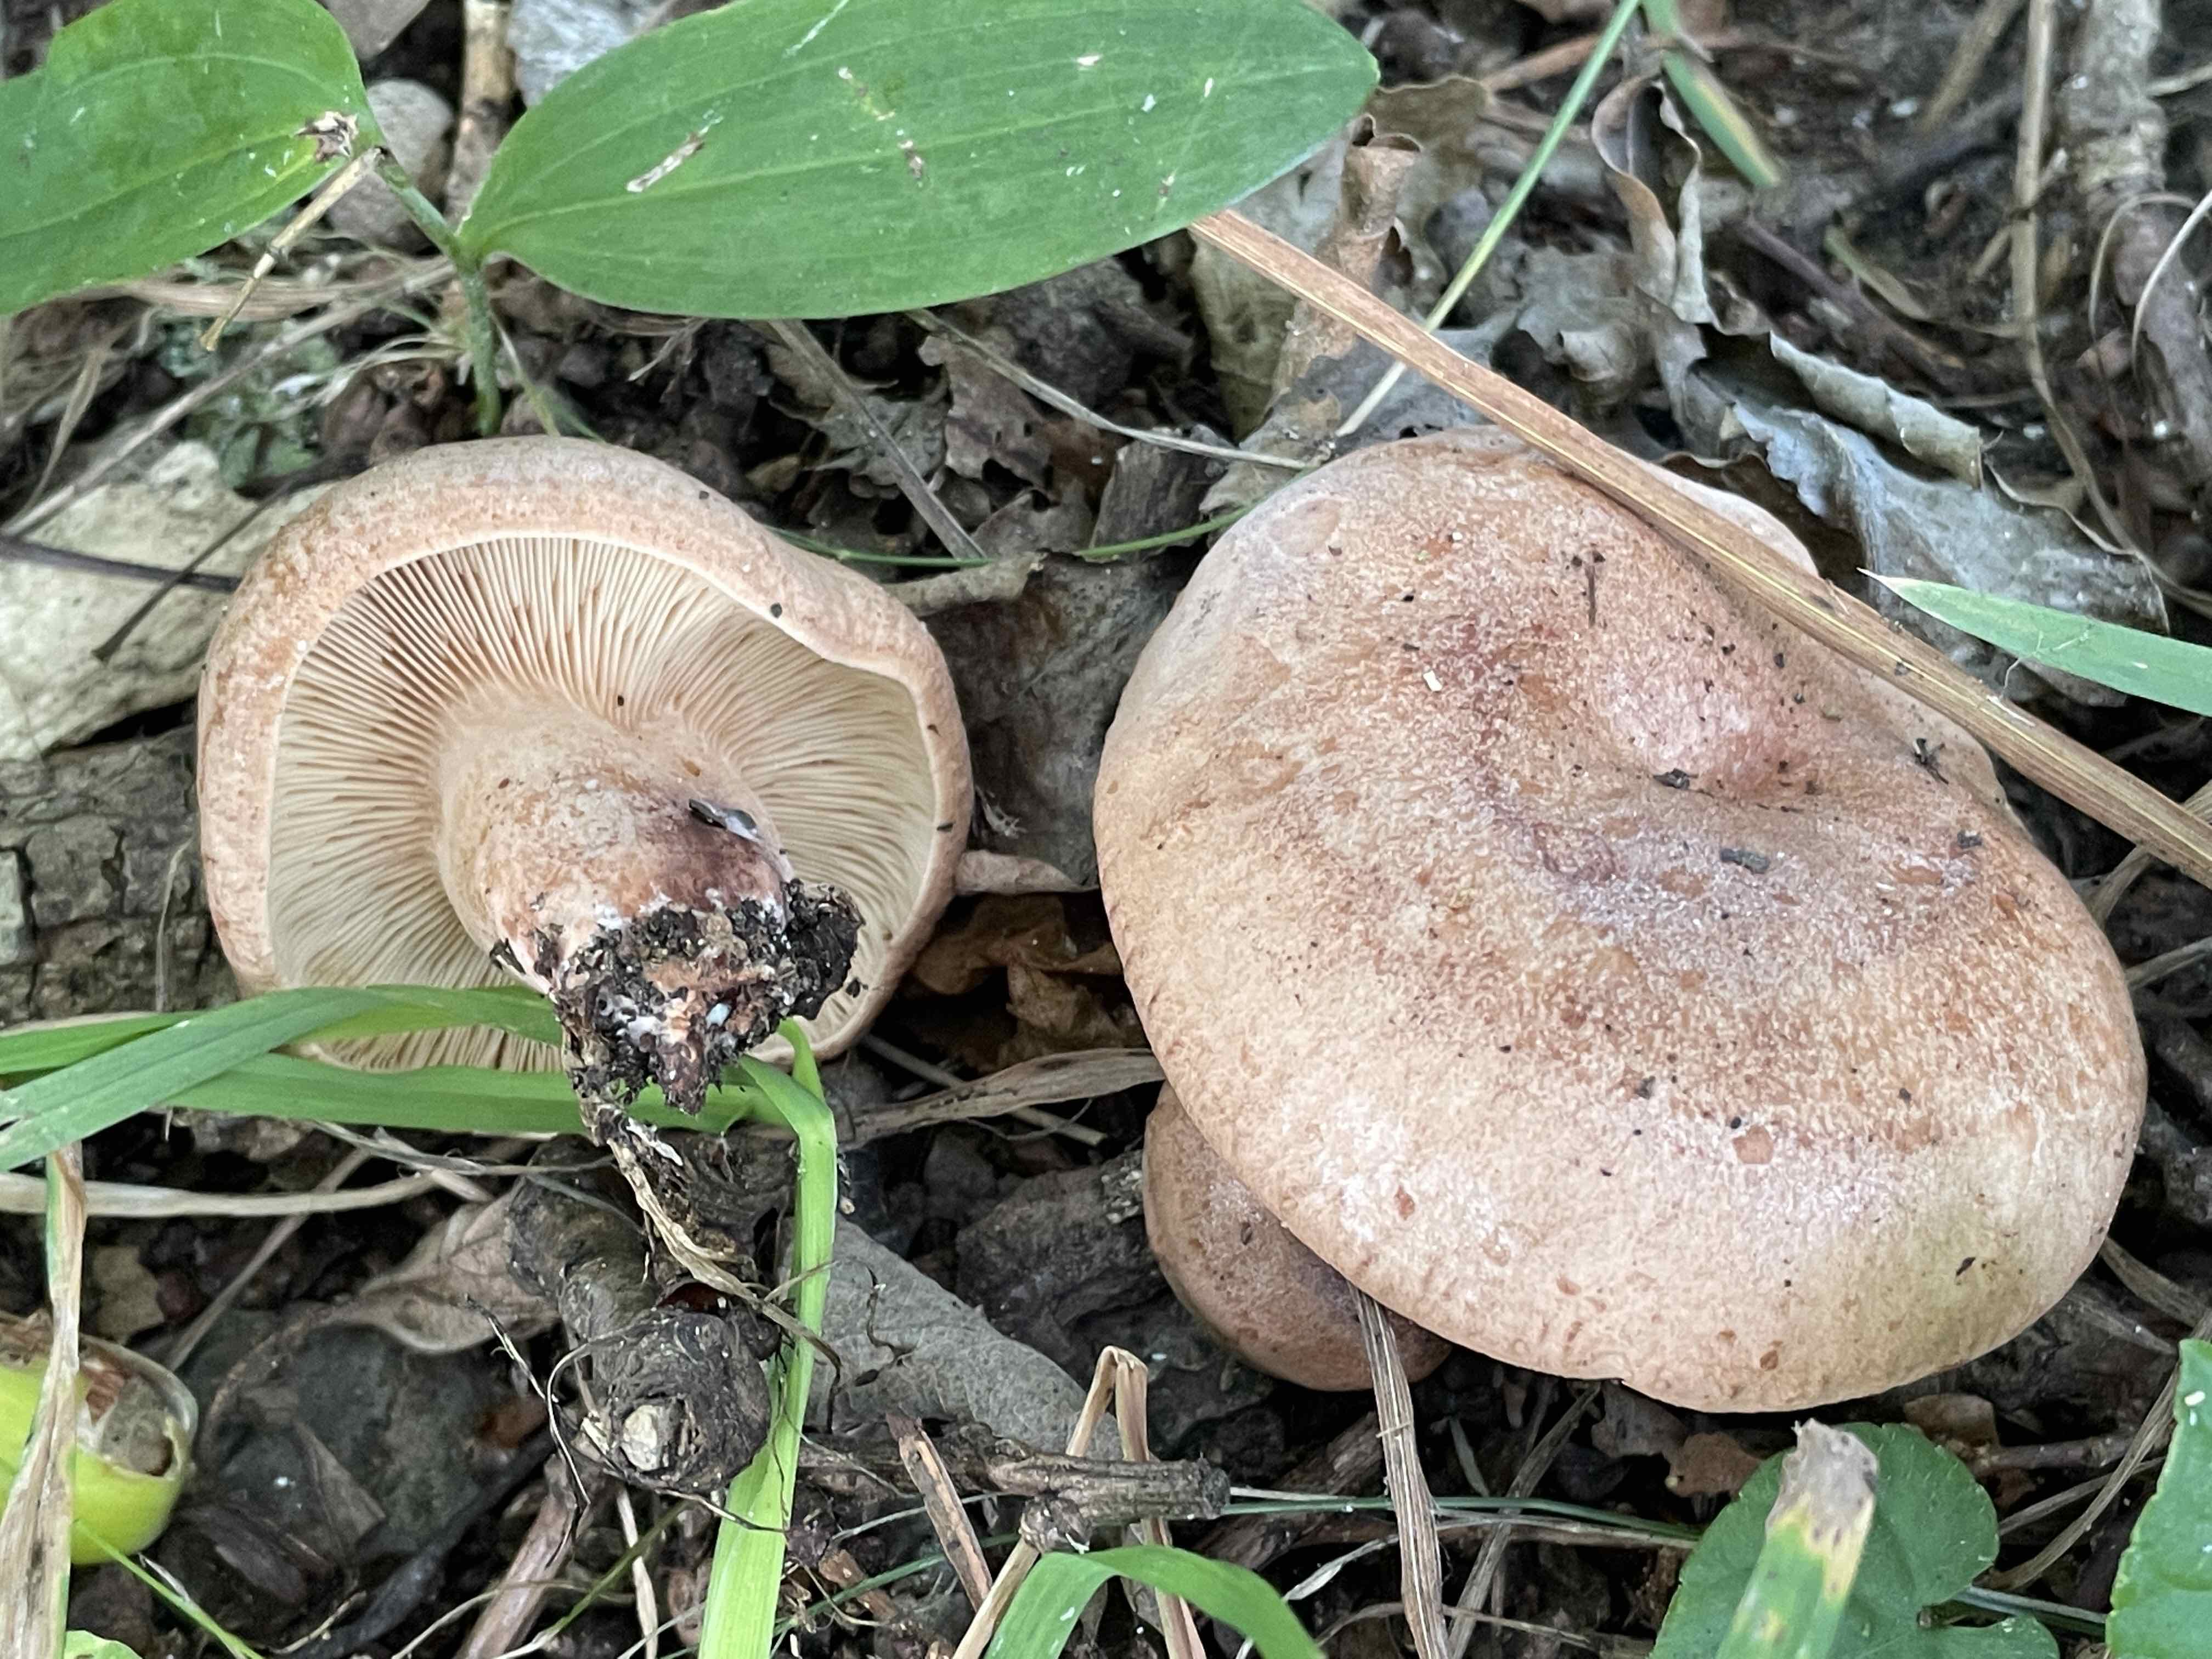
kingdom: Fungi
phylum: Basidiomycota
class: Agaricomycetes
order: Russulales
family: Russulaceae
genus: Lactarius
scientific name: Lactarius quietus
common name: ege-mælkehat
